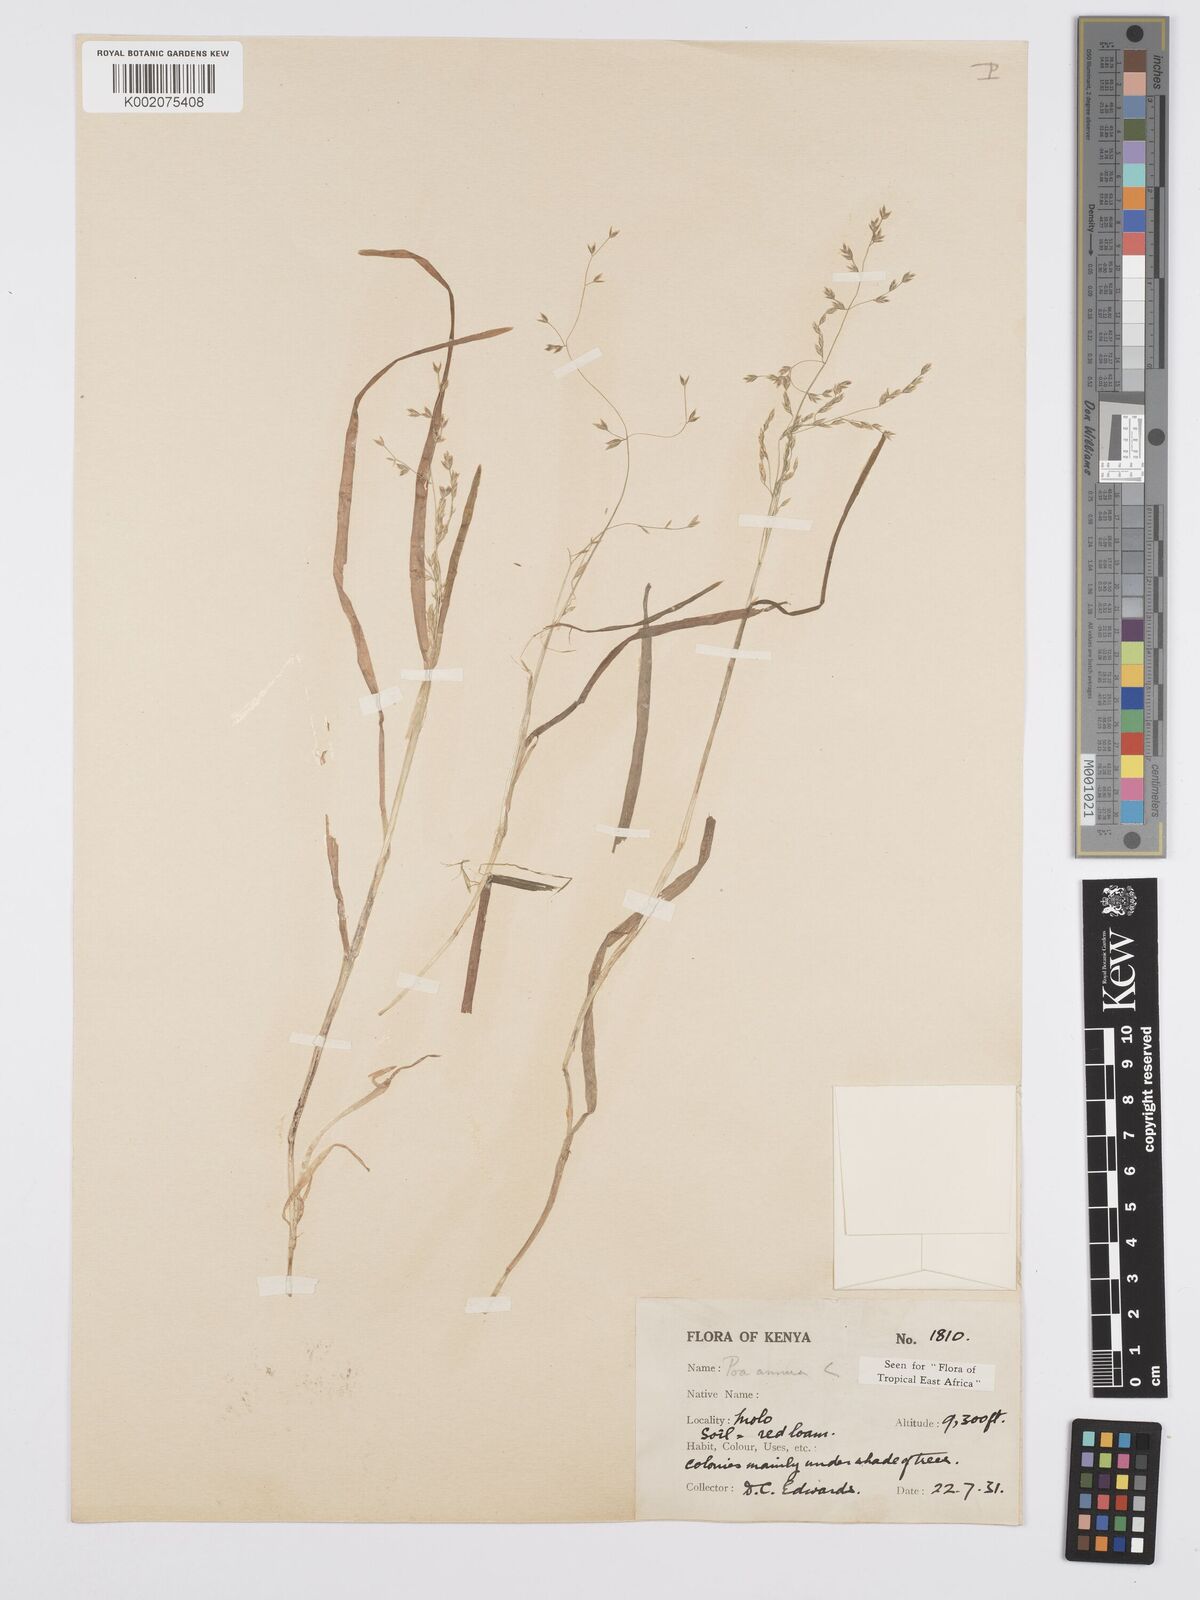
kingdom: Plantae
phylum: Tracheophyta
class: Liliopsida
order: Poales
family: Poaceae
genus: Poa
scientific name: Poa annua
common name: Annual bluegrass
